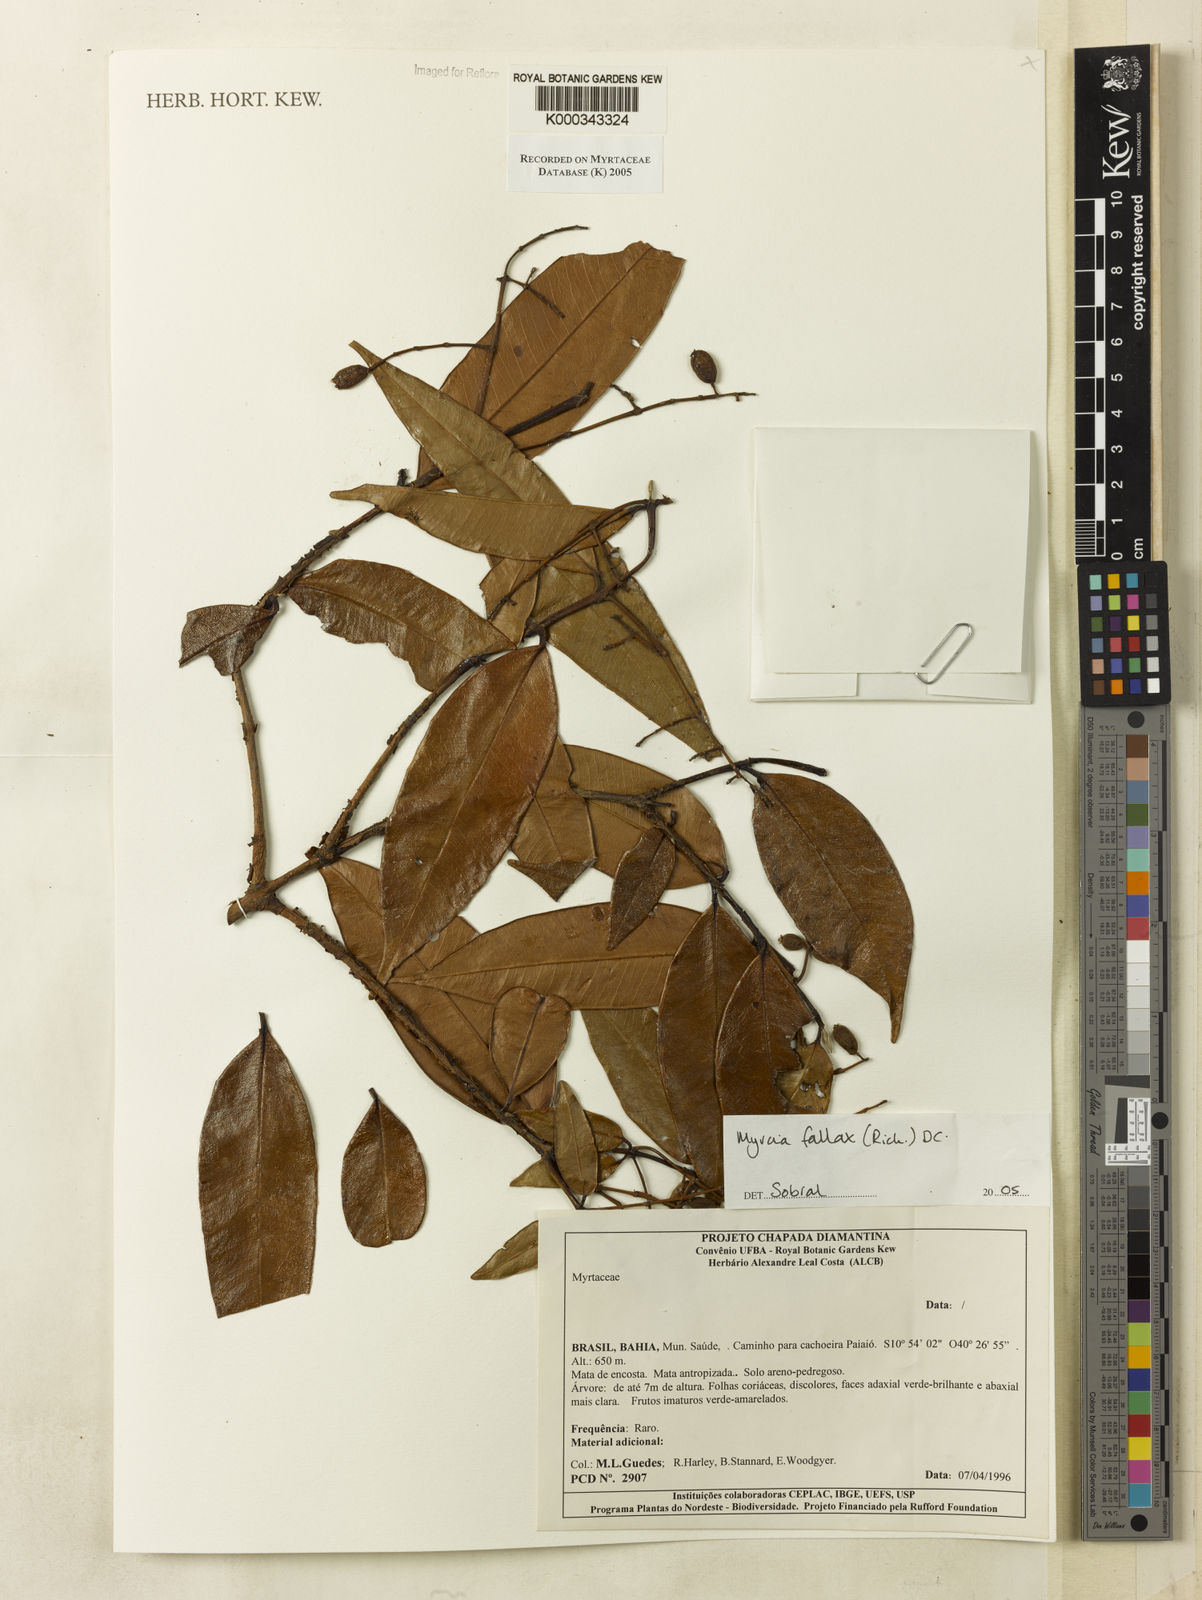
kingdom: Plantae
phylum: Tracheophyta
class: Magnoliopsida
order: Myrtales
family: Myrtaceae
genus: Myrcia
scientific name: Myrcia splendens
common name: Surinam cherry
